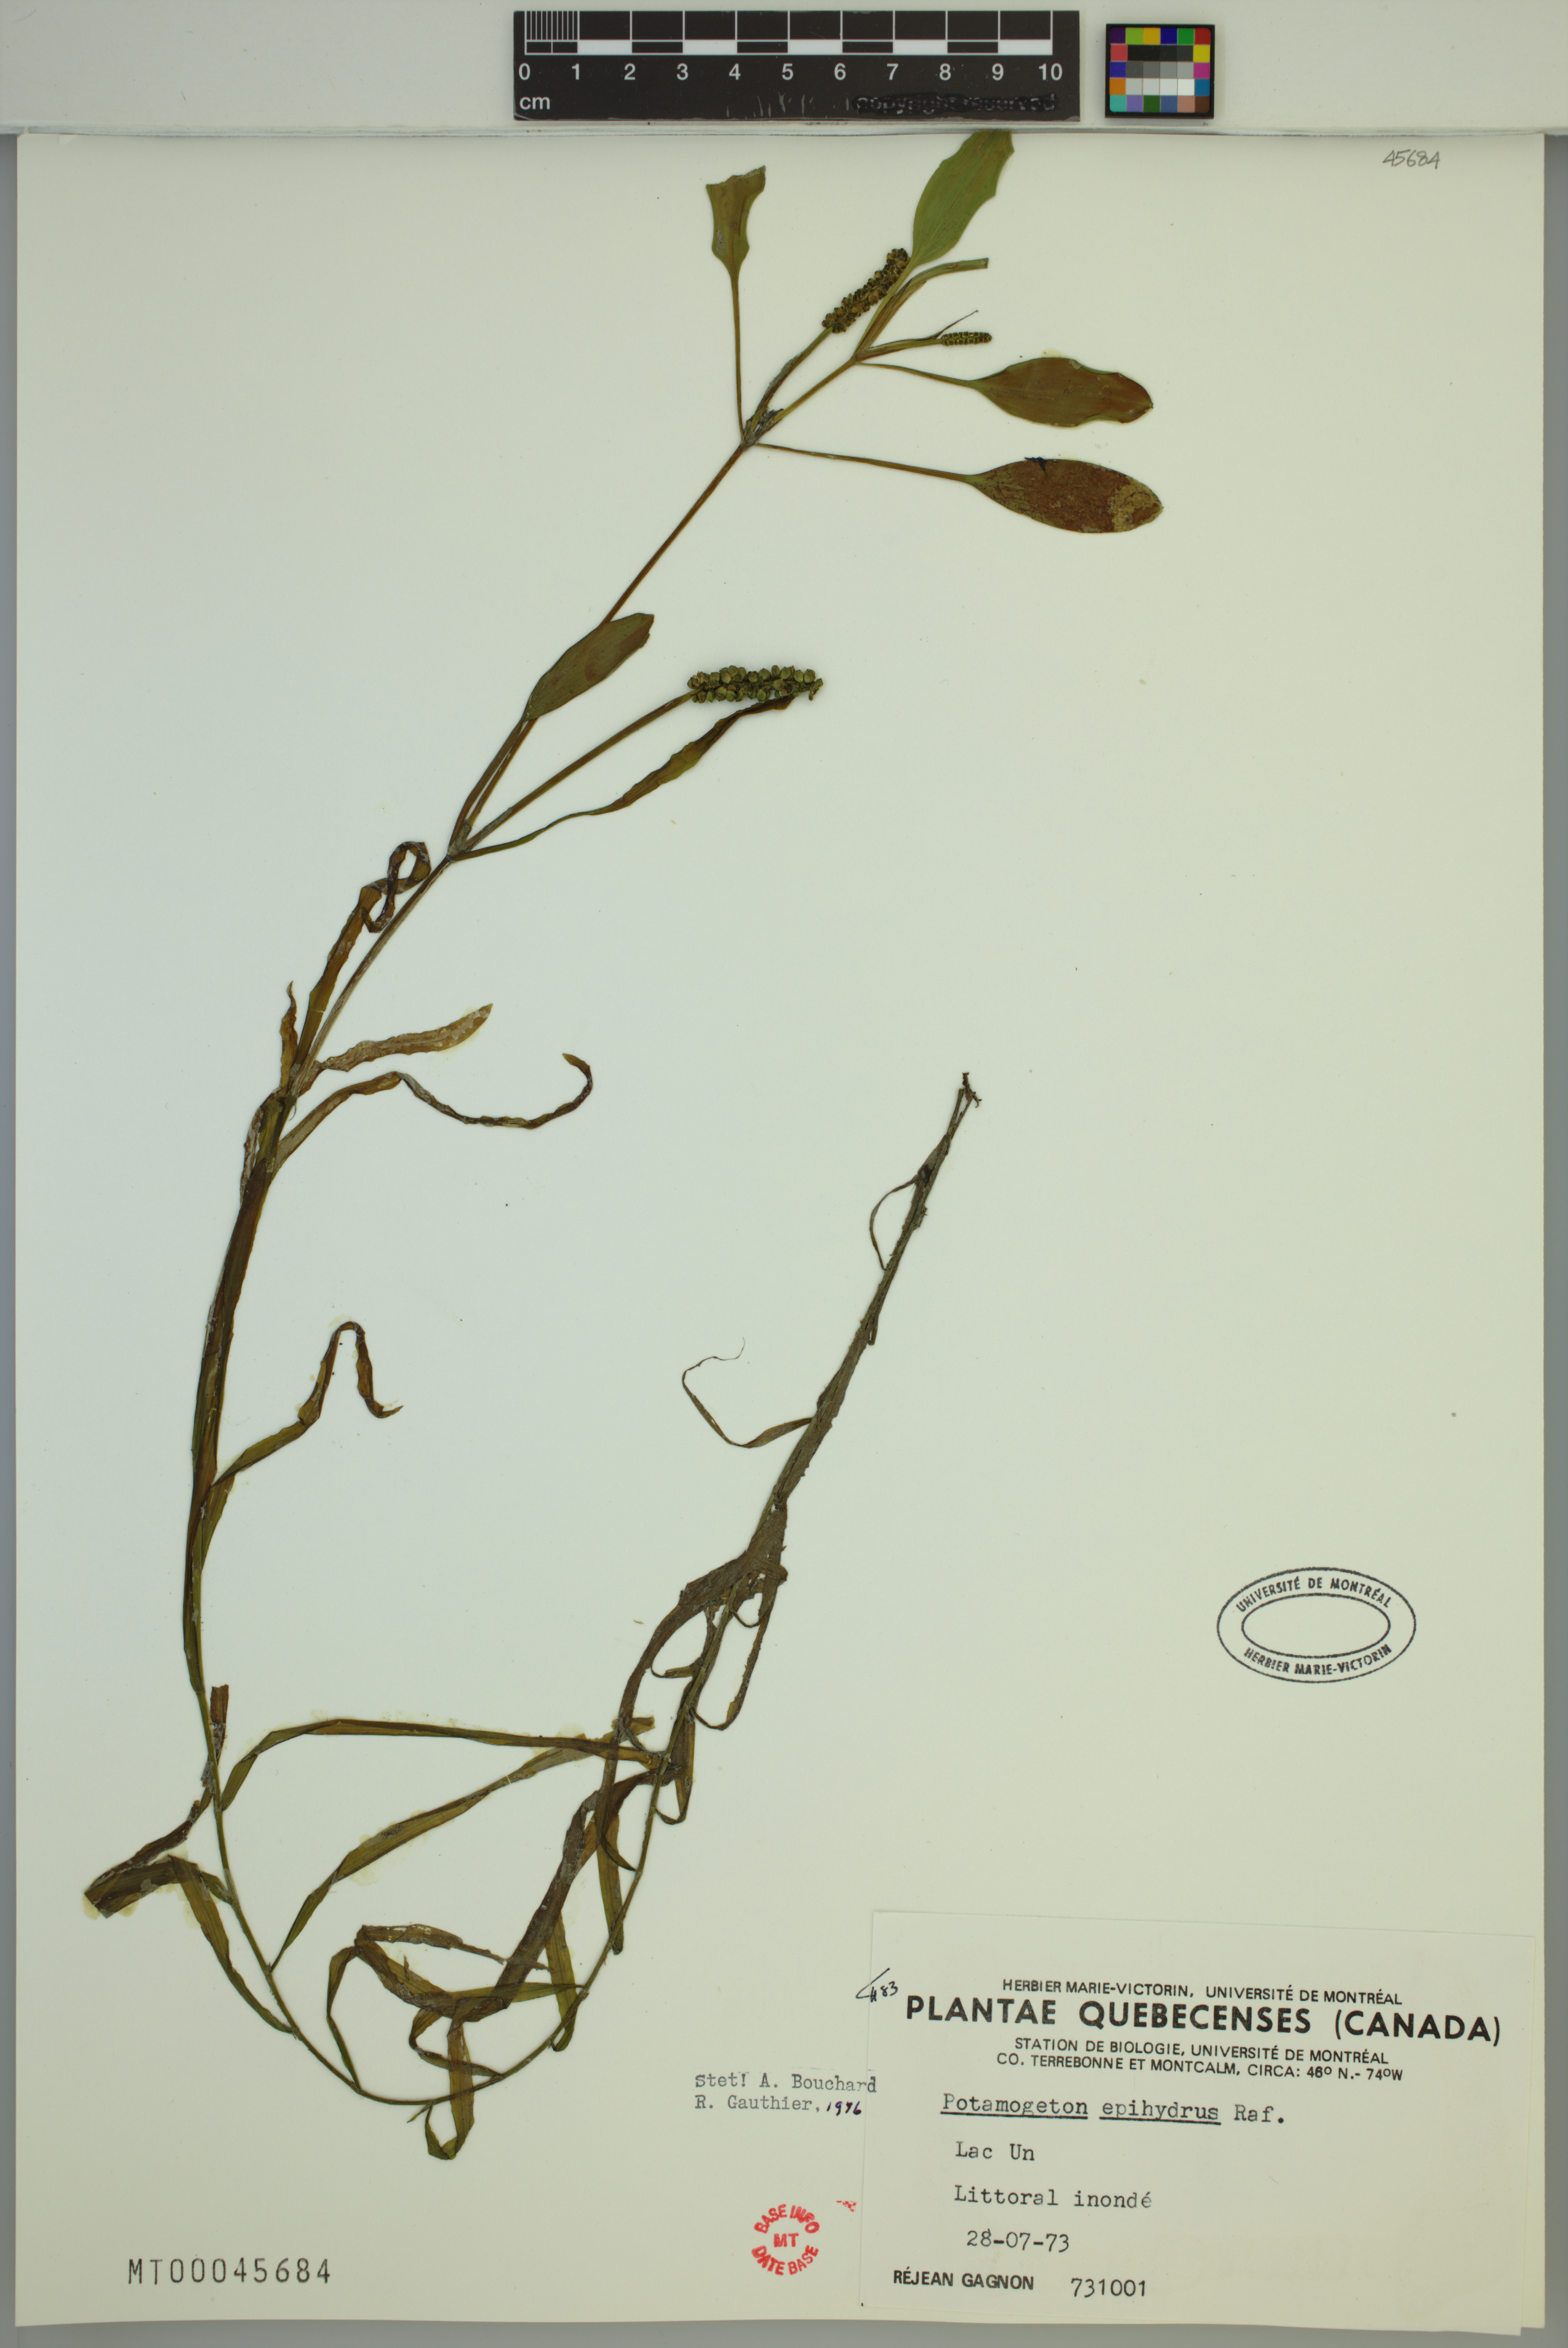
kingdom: Plantae
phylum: Tracheophyta
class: Liliopsida
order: Alismatales
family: Potamogetonaceae
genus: Potamogeton
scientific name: Potamogeton epihydrus
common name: American pondweed
